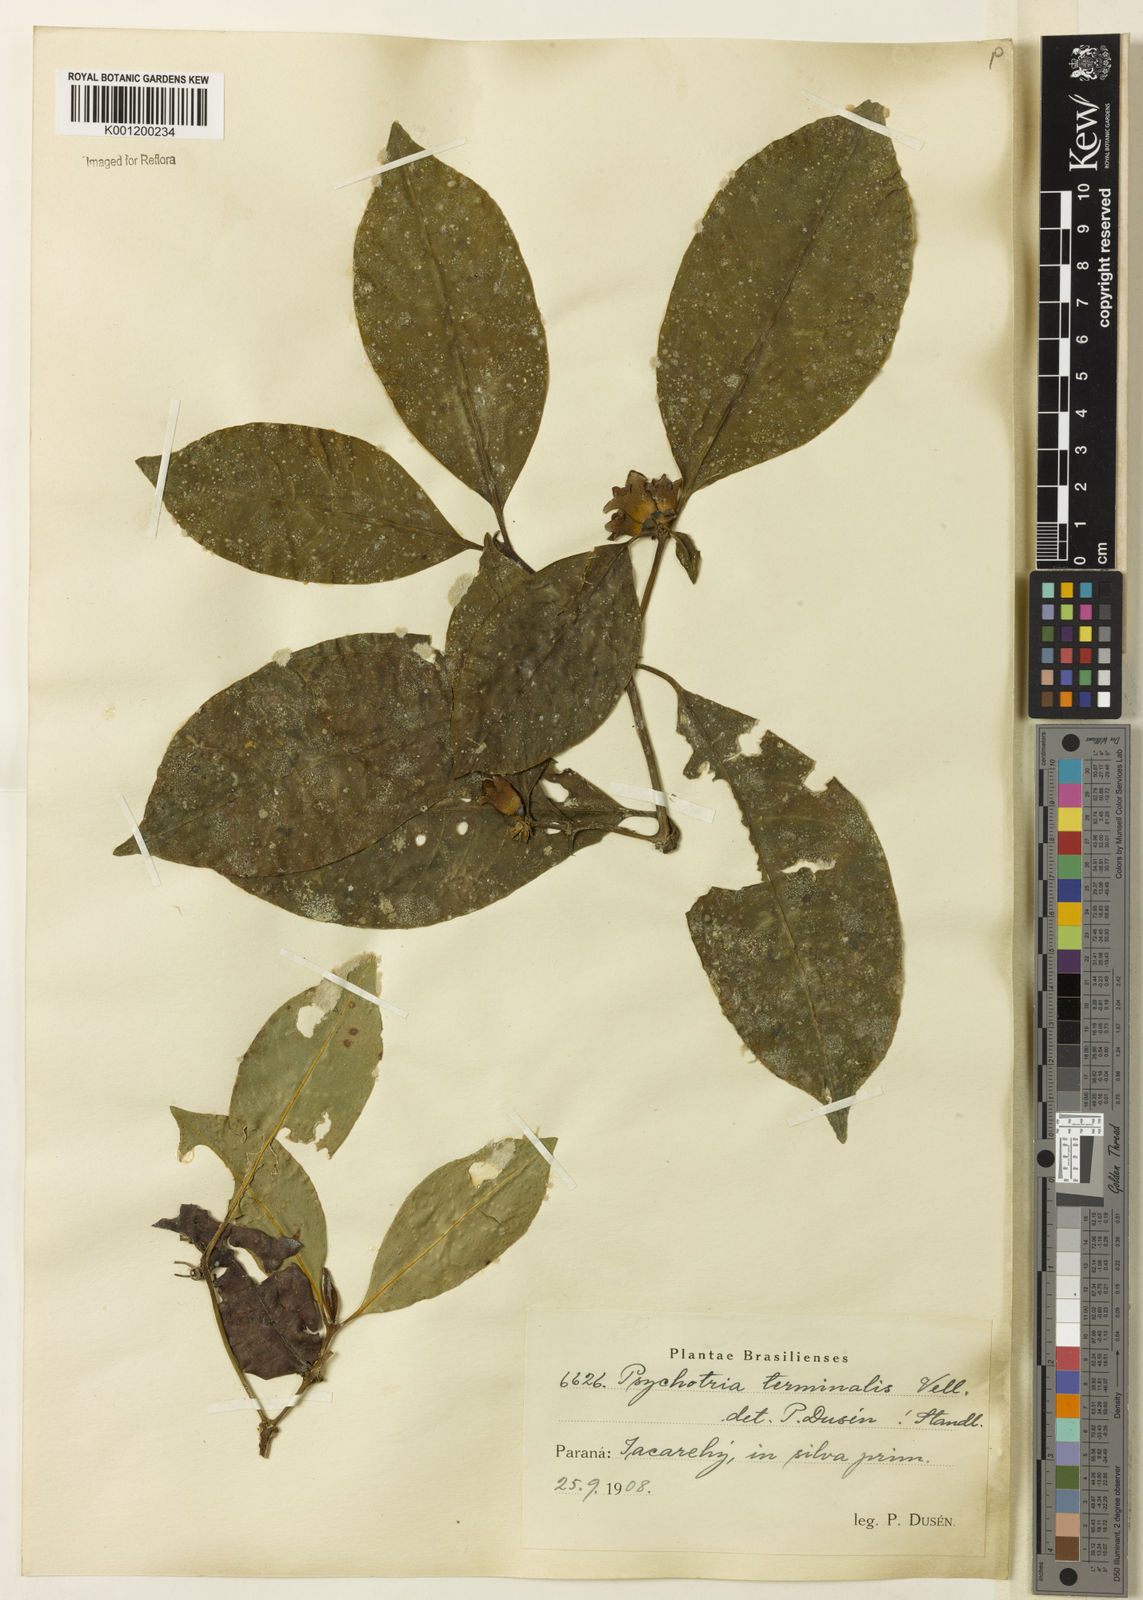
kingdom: Plantae
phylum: Tracheophyta
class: Magnoliopsida
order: Gentianales
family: Rubiaceae
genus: Psychotria
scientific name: Psychotria nuda
